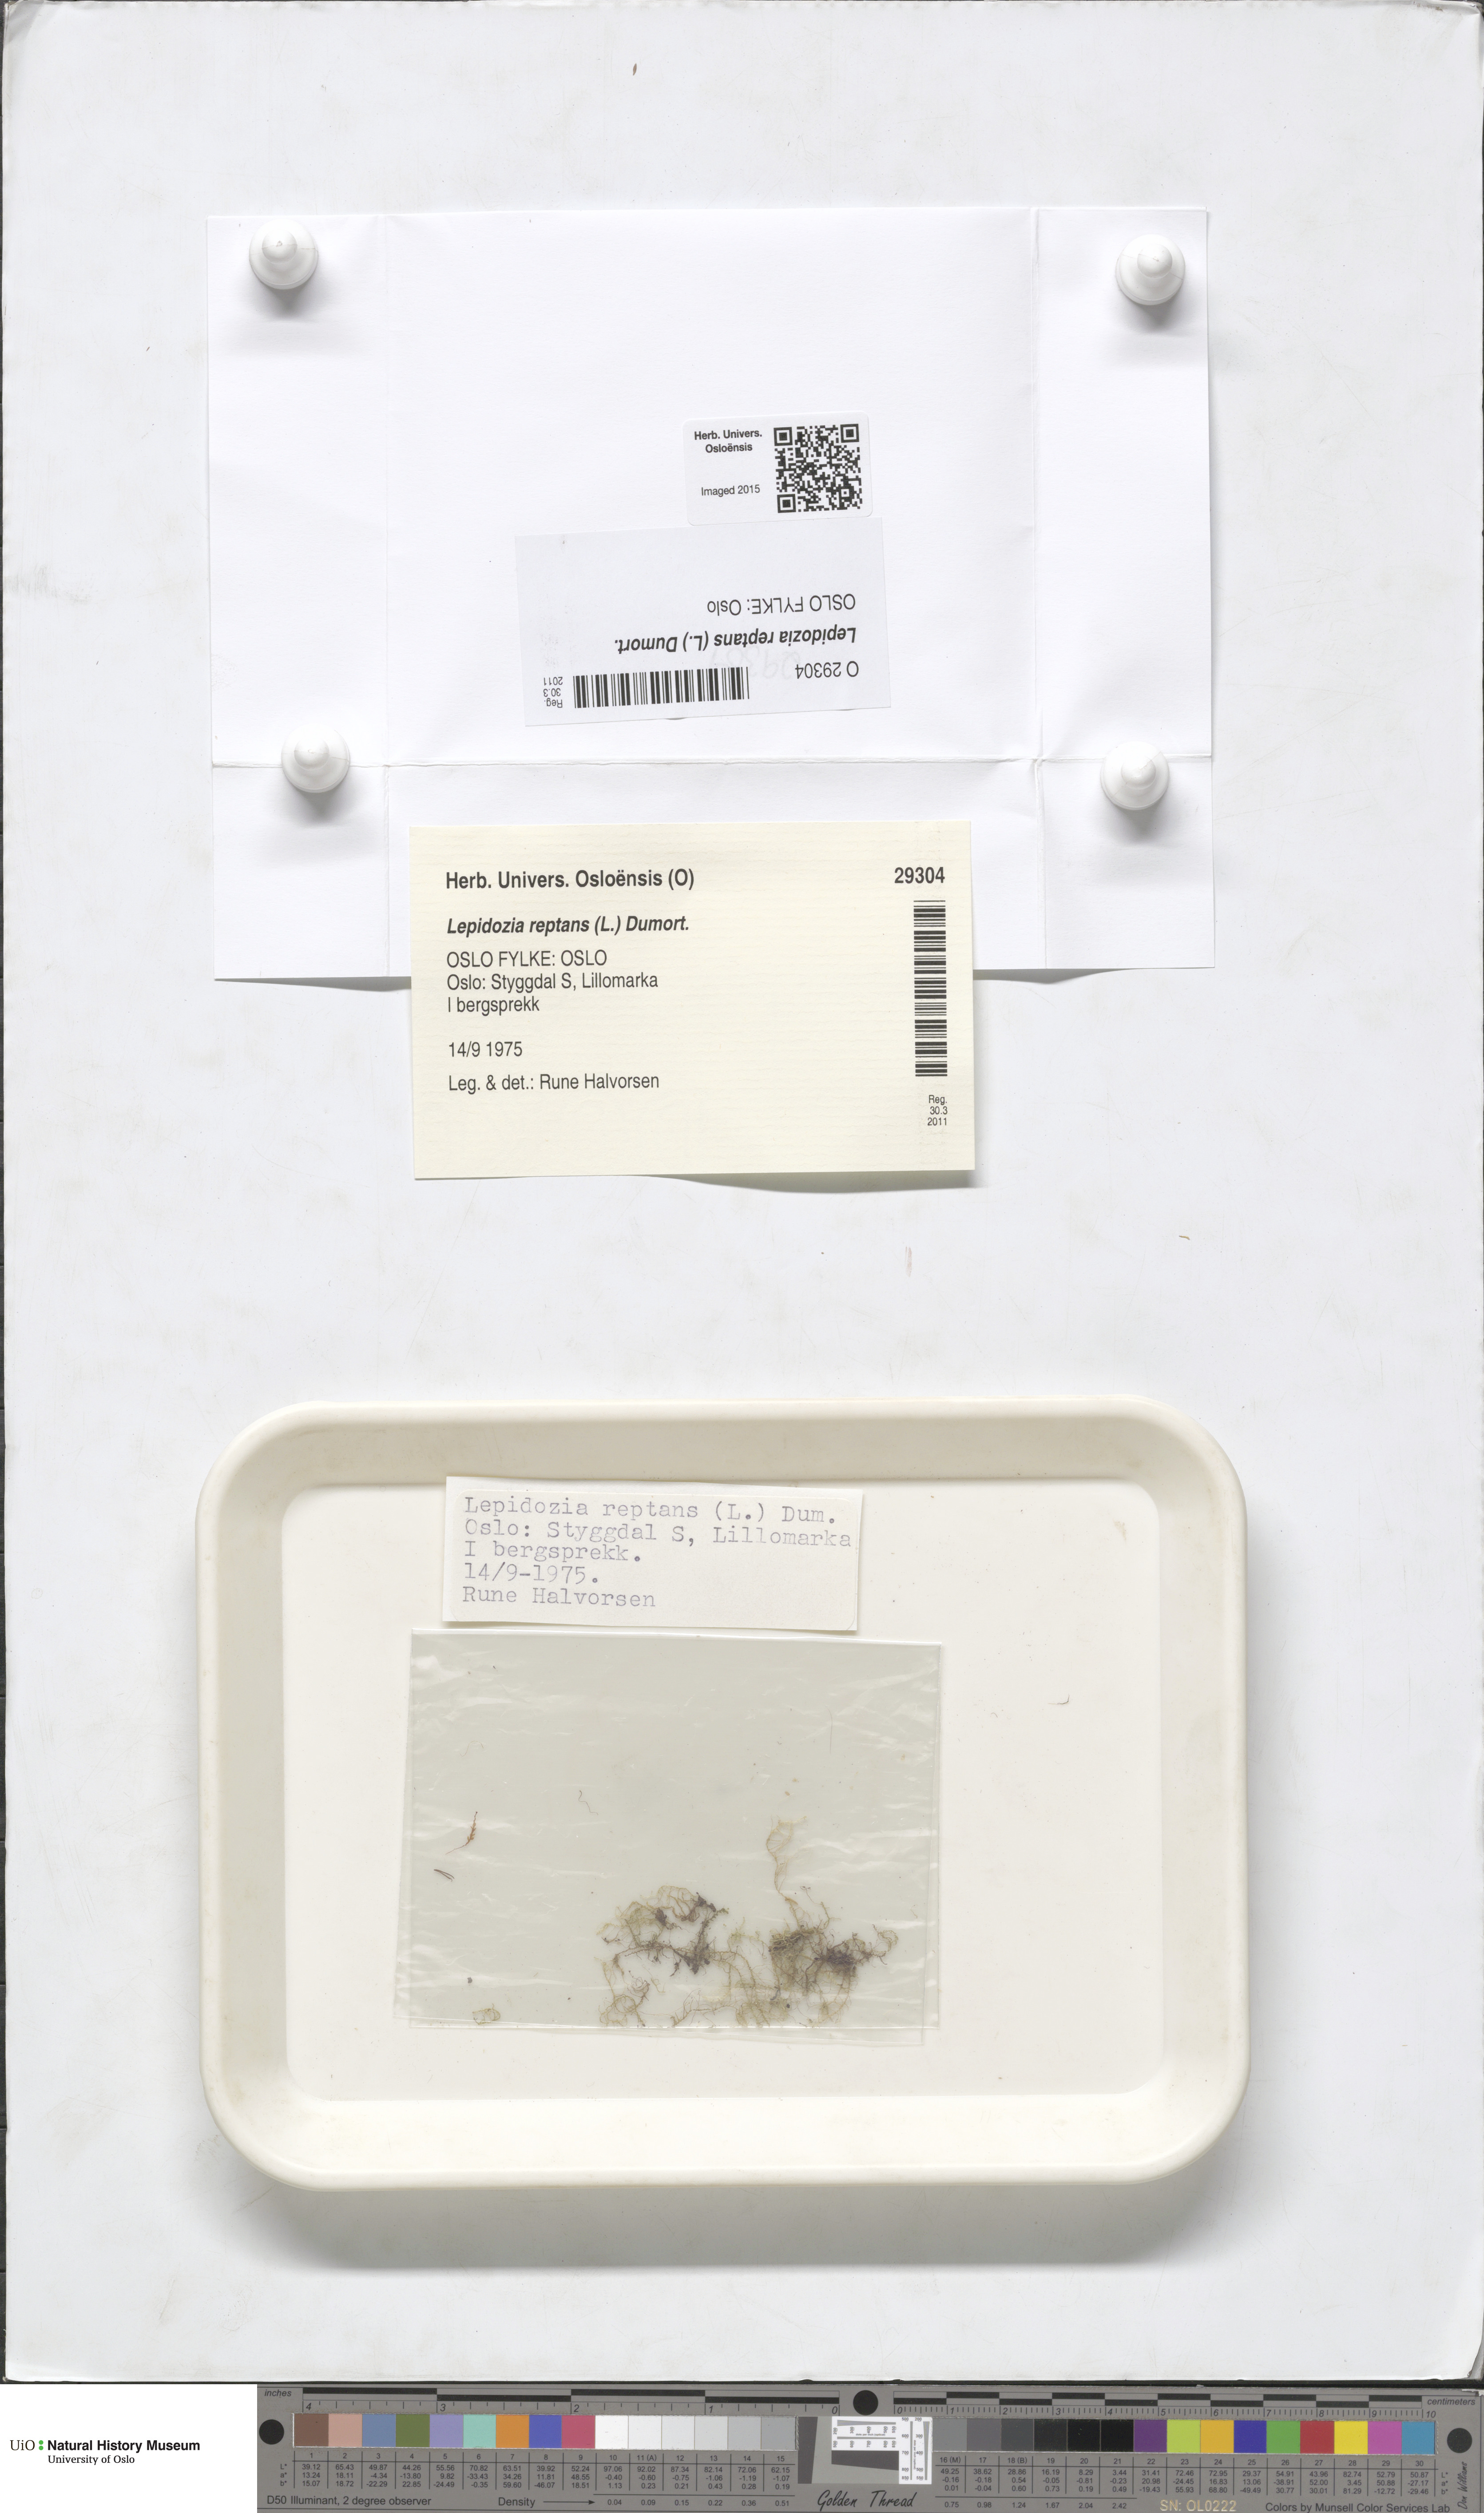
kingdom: Plantae
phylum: Marchantiophyta
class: Jungermanniopsida
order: Jungermanniales
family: Lepidoziaceae
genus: Lepidozia
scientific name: Lepidozia reptans
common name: Creeping fingerwort
